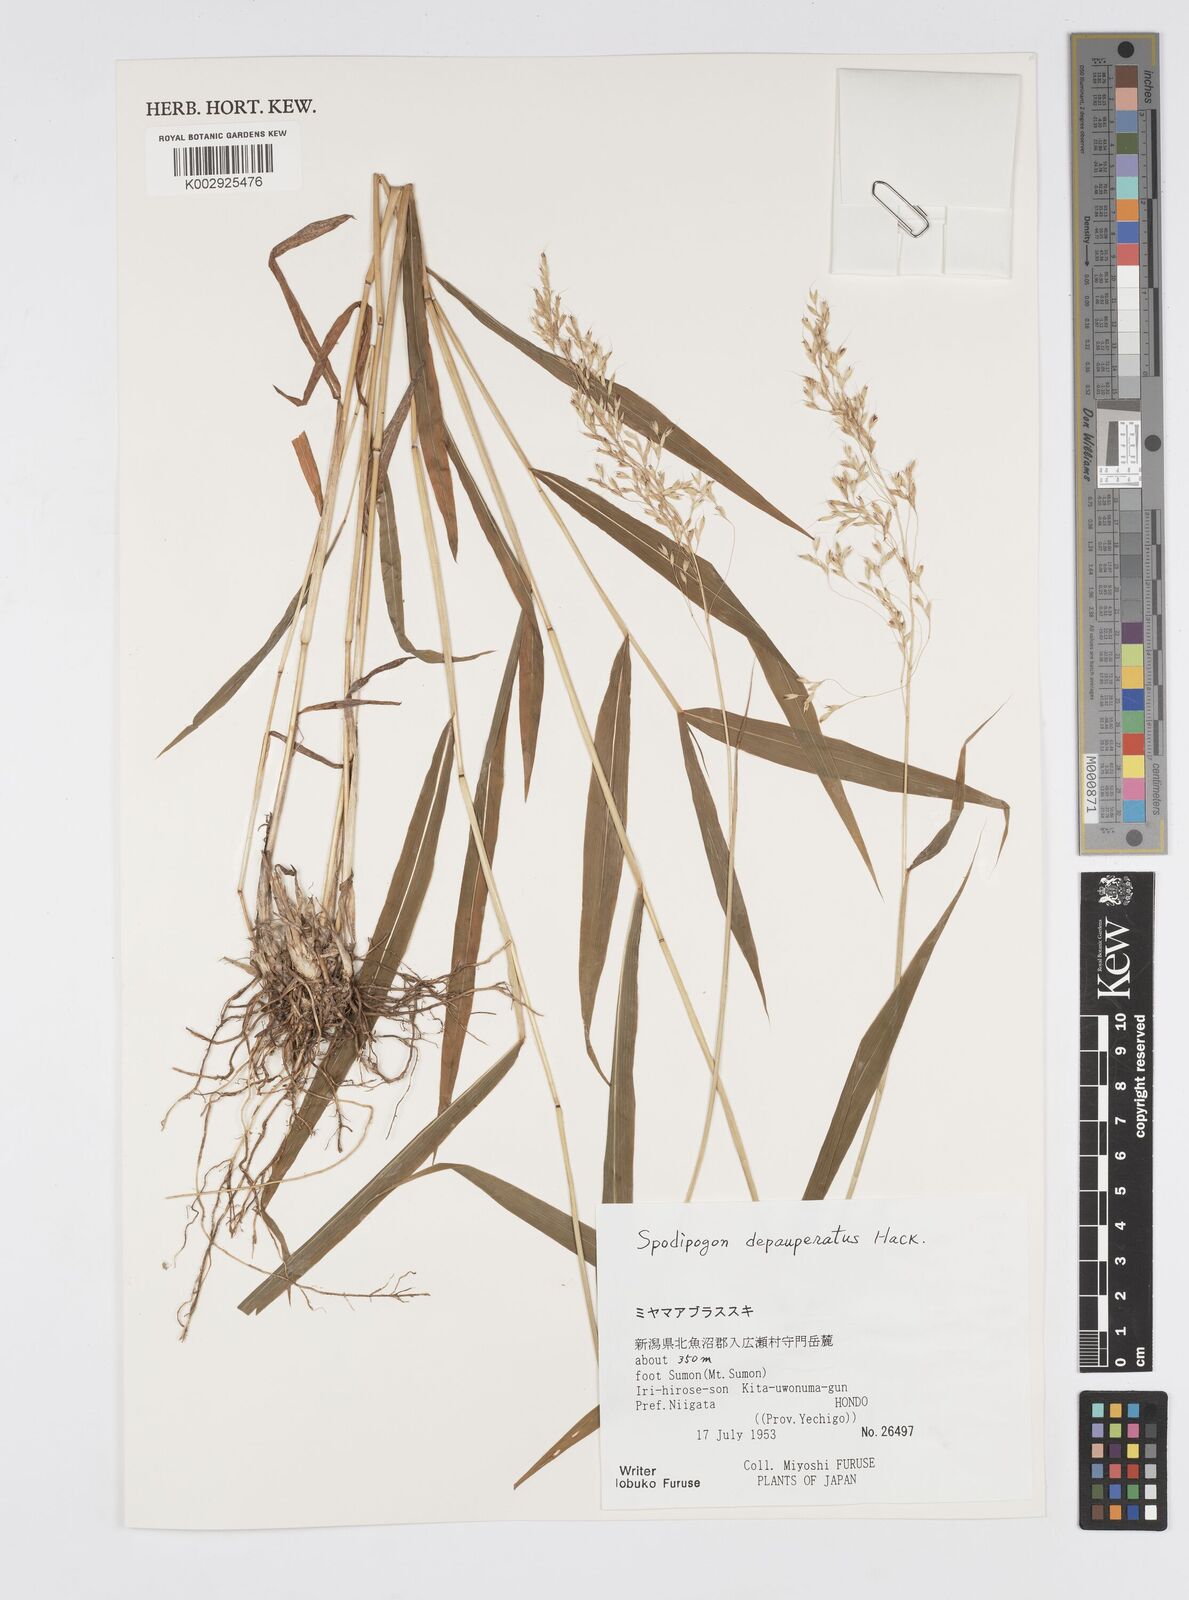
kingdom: Plantae
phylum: Tracheophyta
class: Liliopsida
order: Poales
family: Poaceae
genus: Spodiopogon
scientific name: Spodiopogon depauperatus
